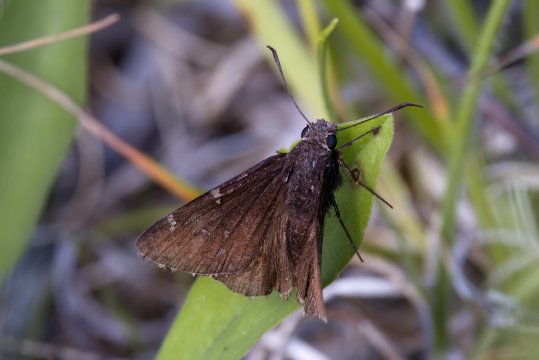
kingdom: Animalia
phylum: Arthropoda
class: Insecta
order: Lepidoptera
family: Hesperiidae
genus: Autochton
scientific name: Autochton
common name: Northern Cloudywing
